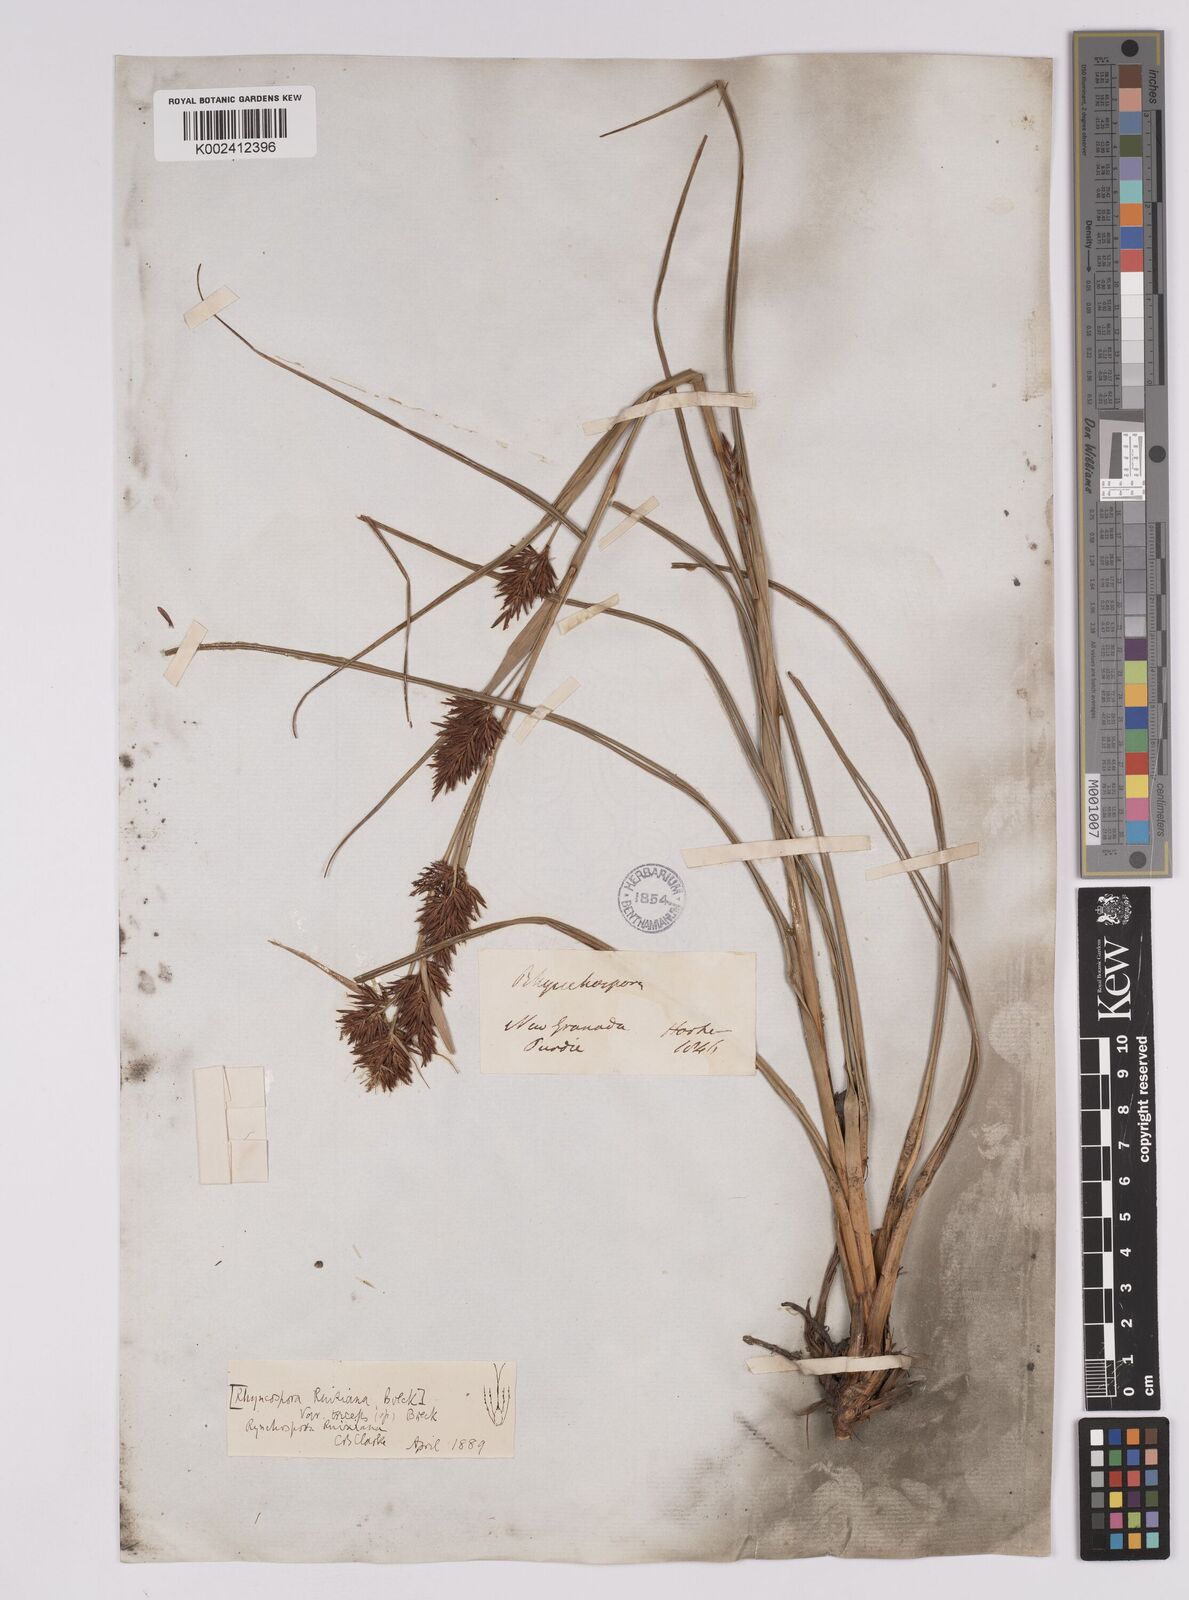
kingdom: Plantae
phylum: Tracheophyta
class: Liliopsida
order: Poales
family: Cyperaceae
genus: Rhynchospora
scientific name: Rhynchospora ruiziana
